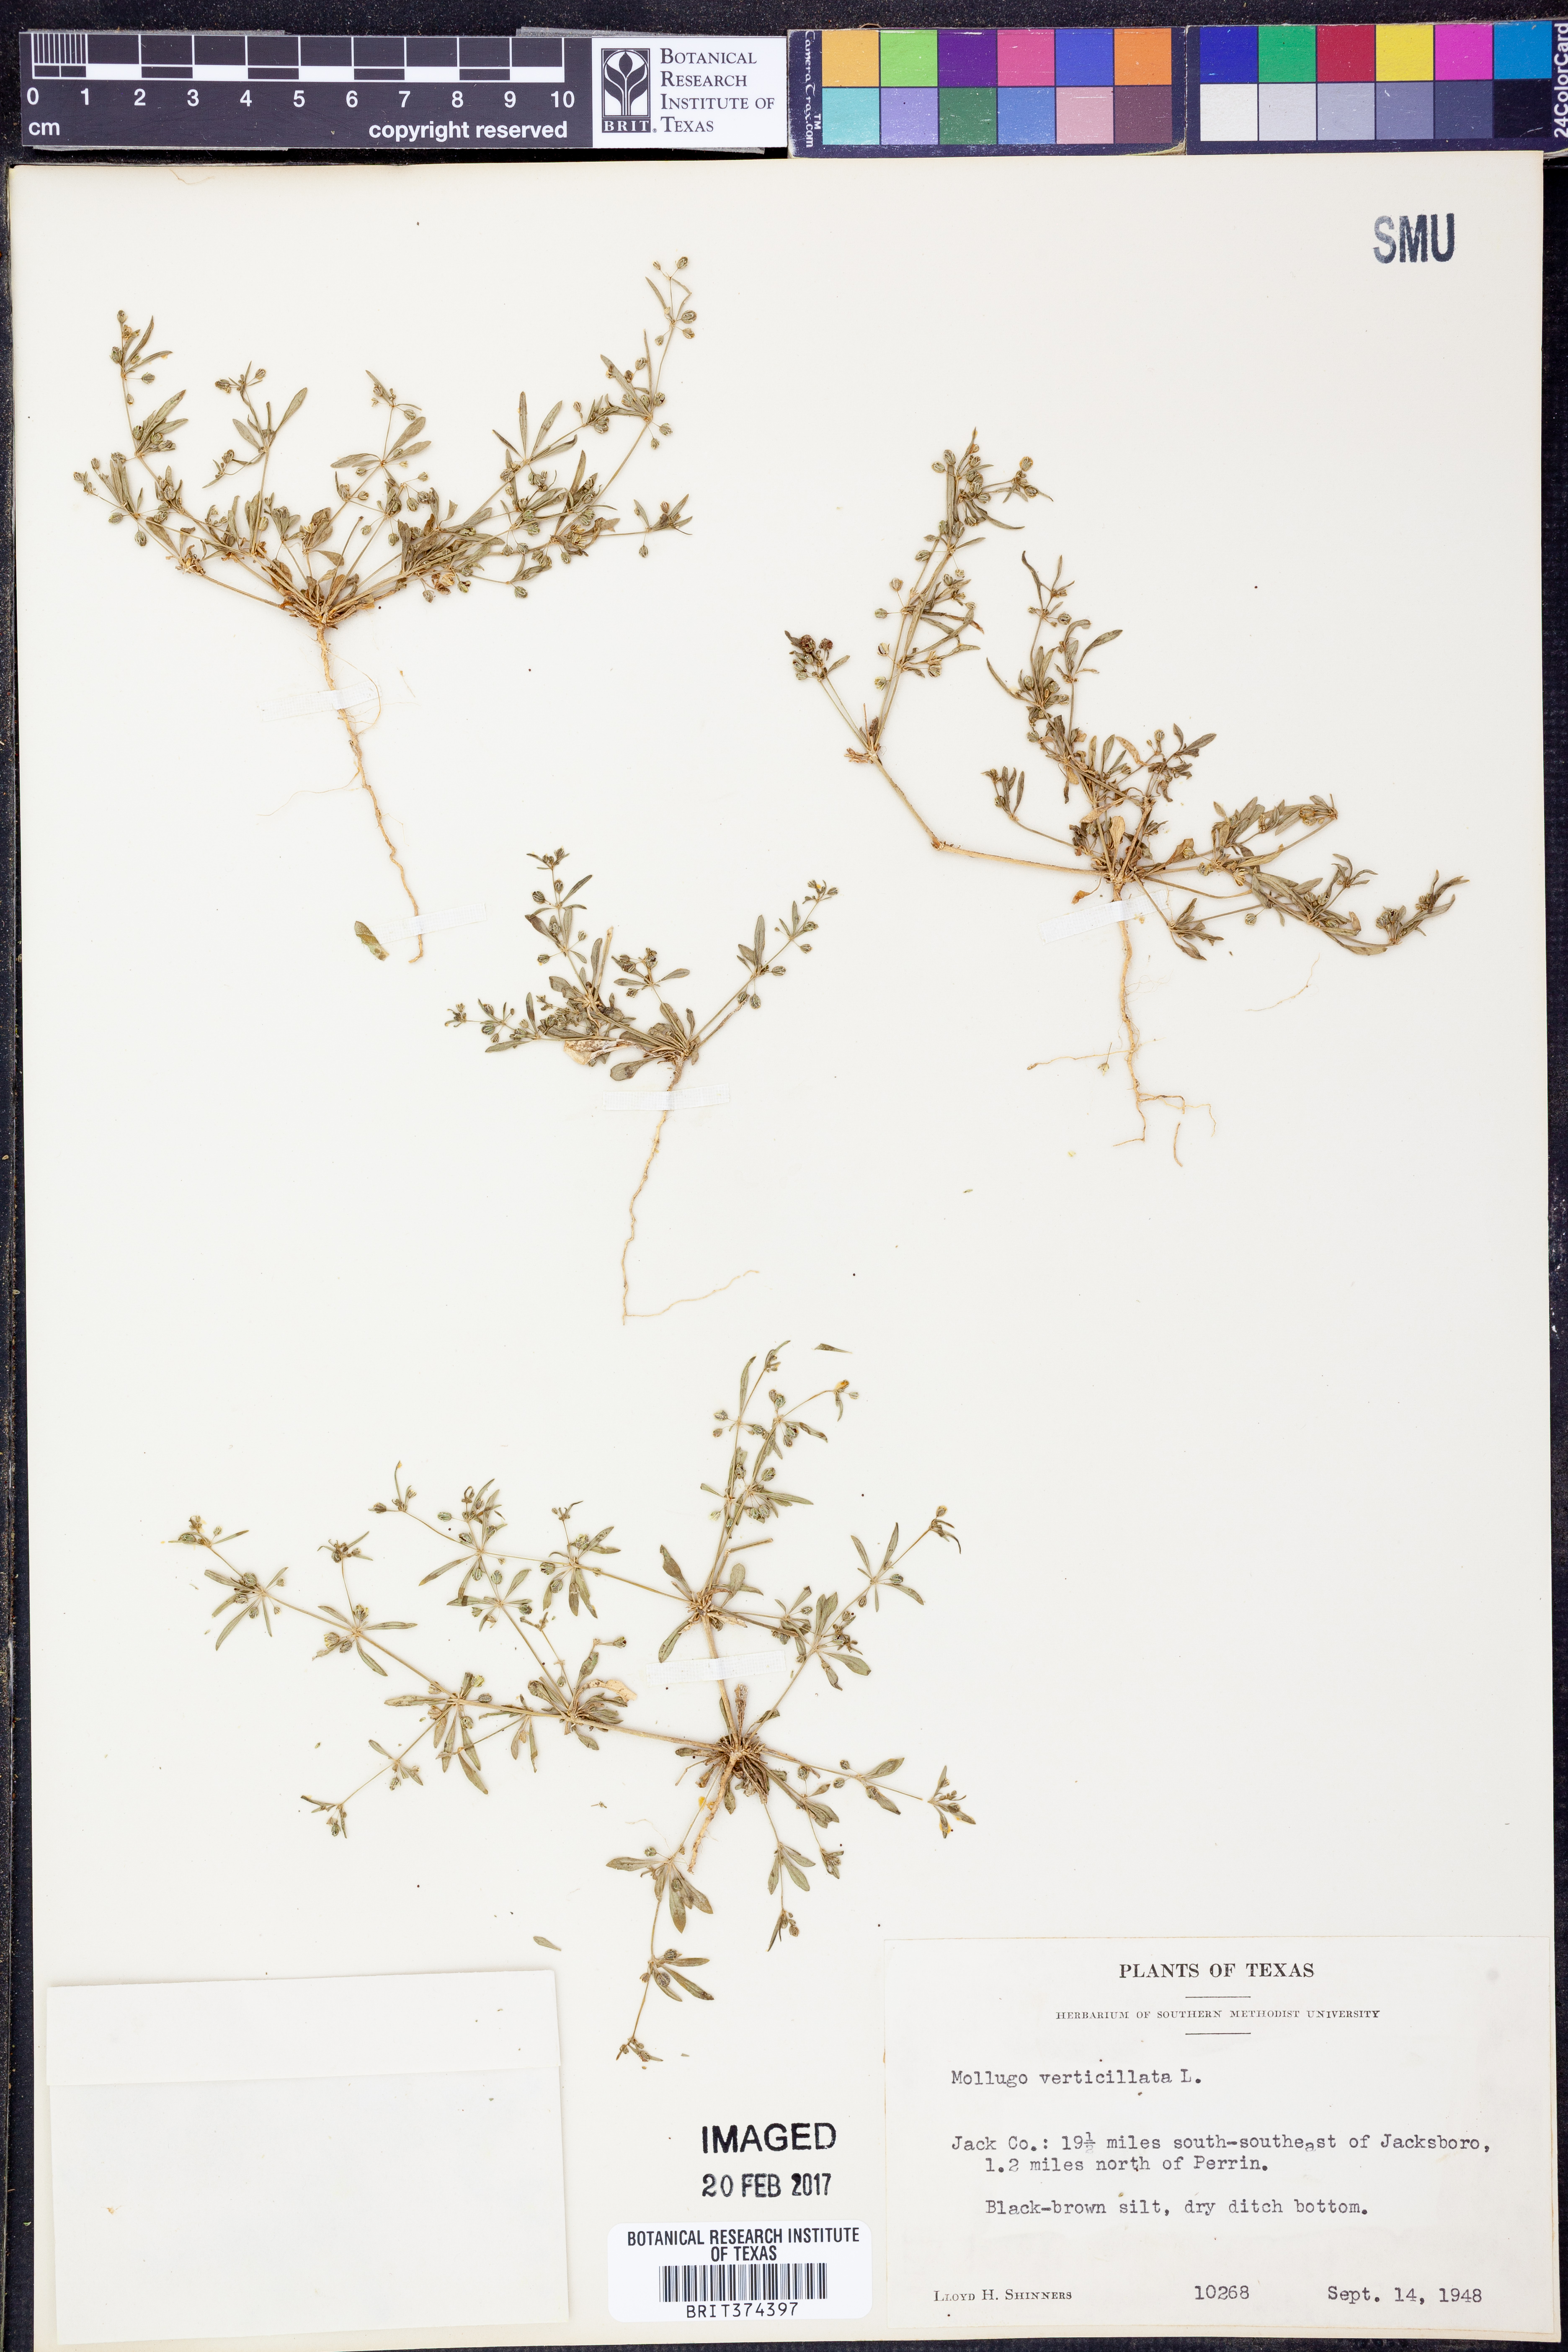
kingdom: Plantae
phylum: Tracheophyta
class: Magnoliopsida
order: Caryophyllales
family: Molluginaceae
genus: Mollugo
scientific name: Mollugo verticillata
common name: Green carpetweed
